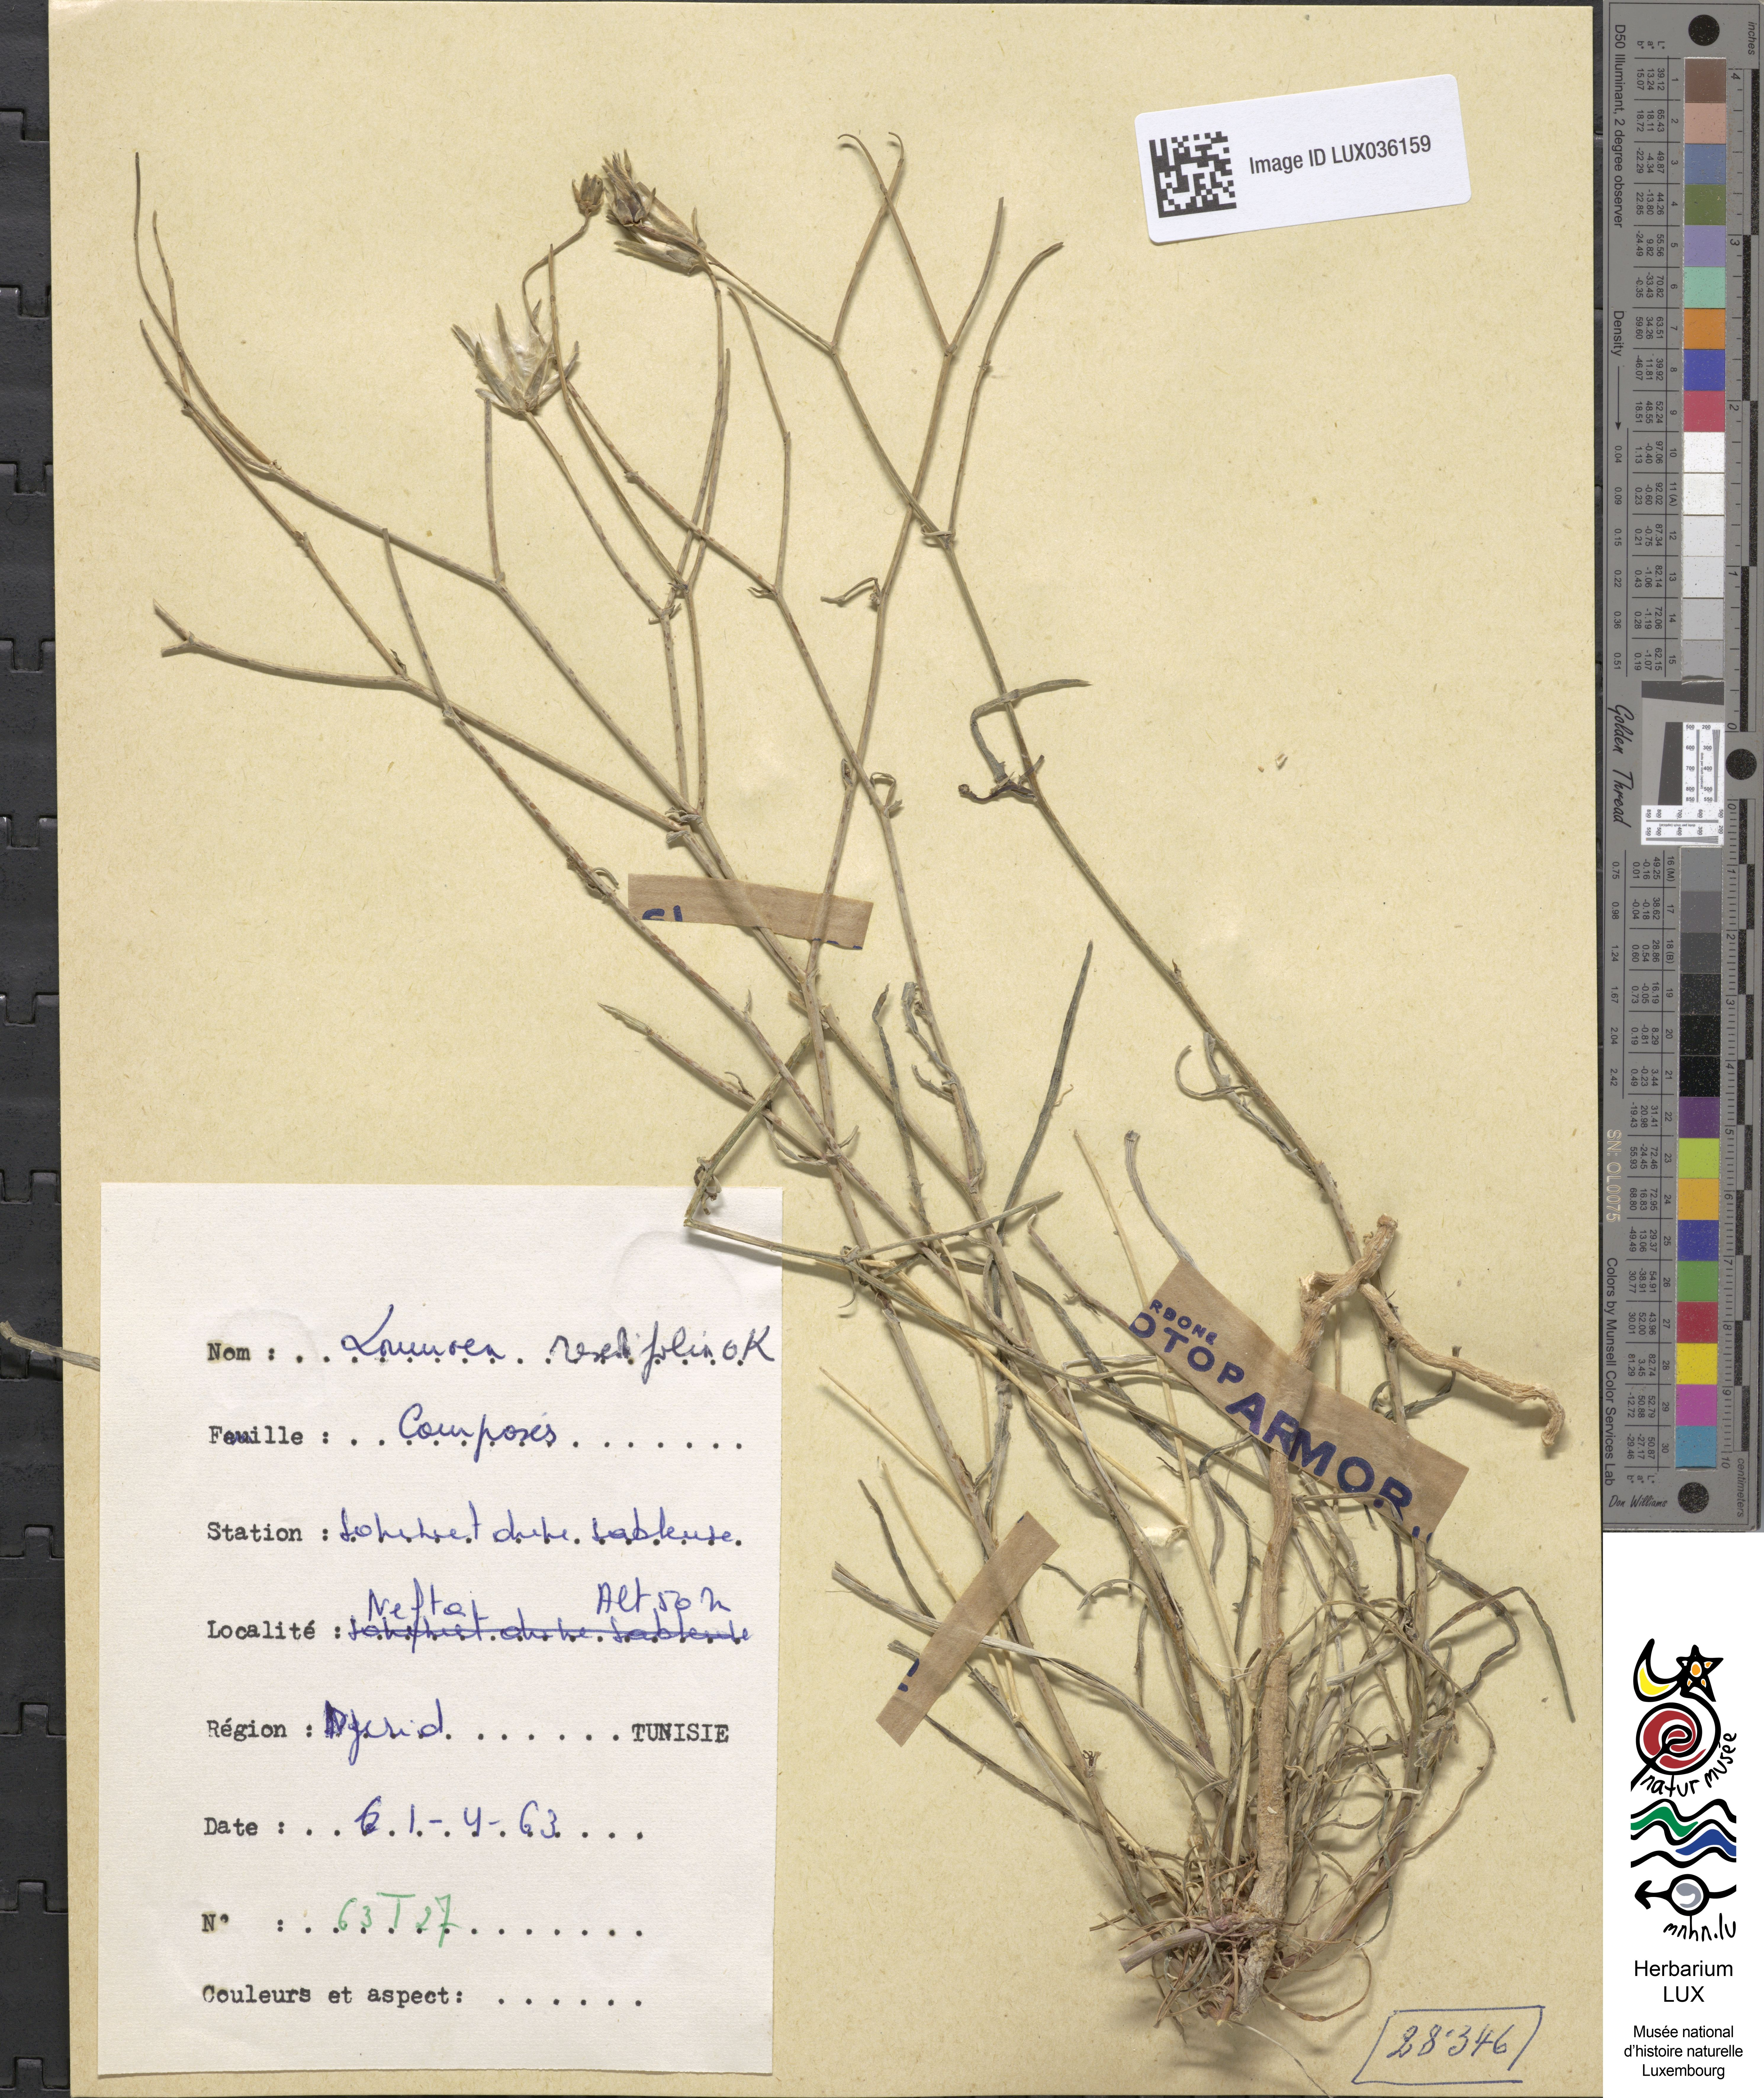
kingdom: Plantae
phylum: Tracheophyta
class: Magnoliopsida
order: Asterales
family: Asteraceae
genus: Launaea
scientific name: Launaea fragilis
